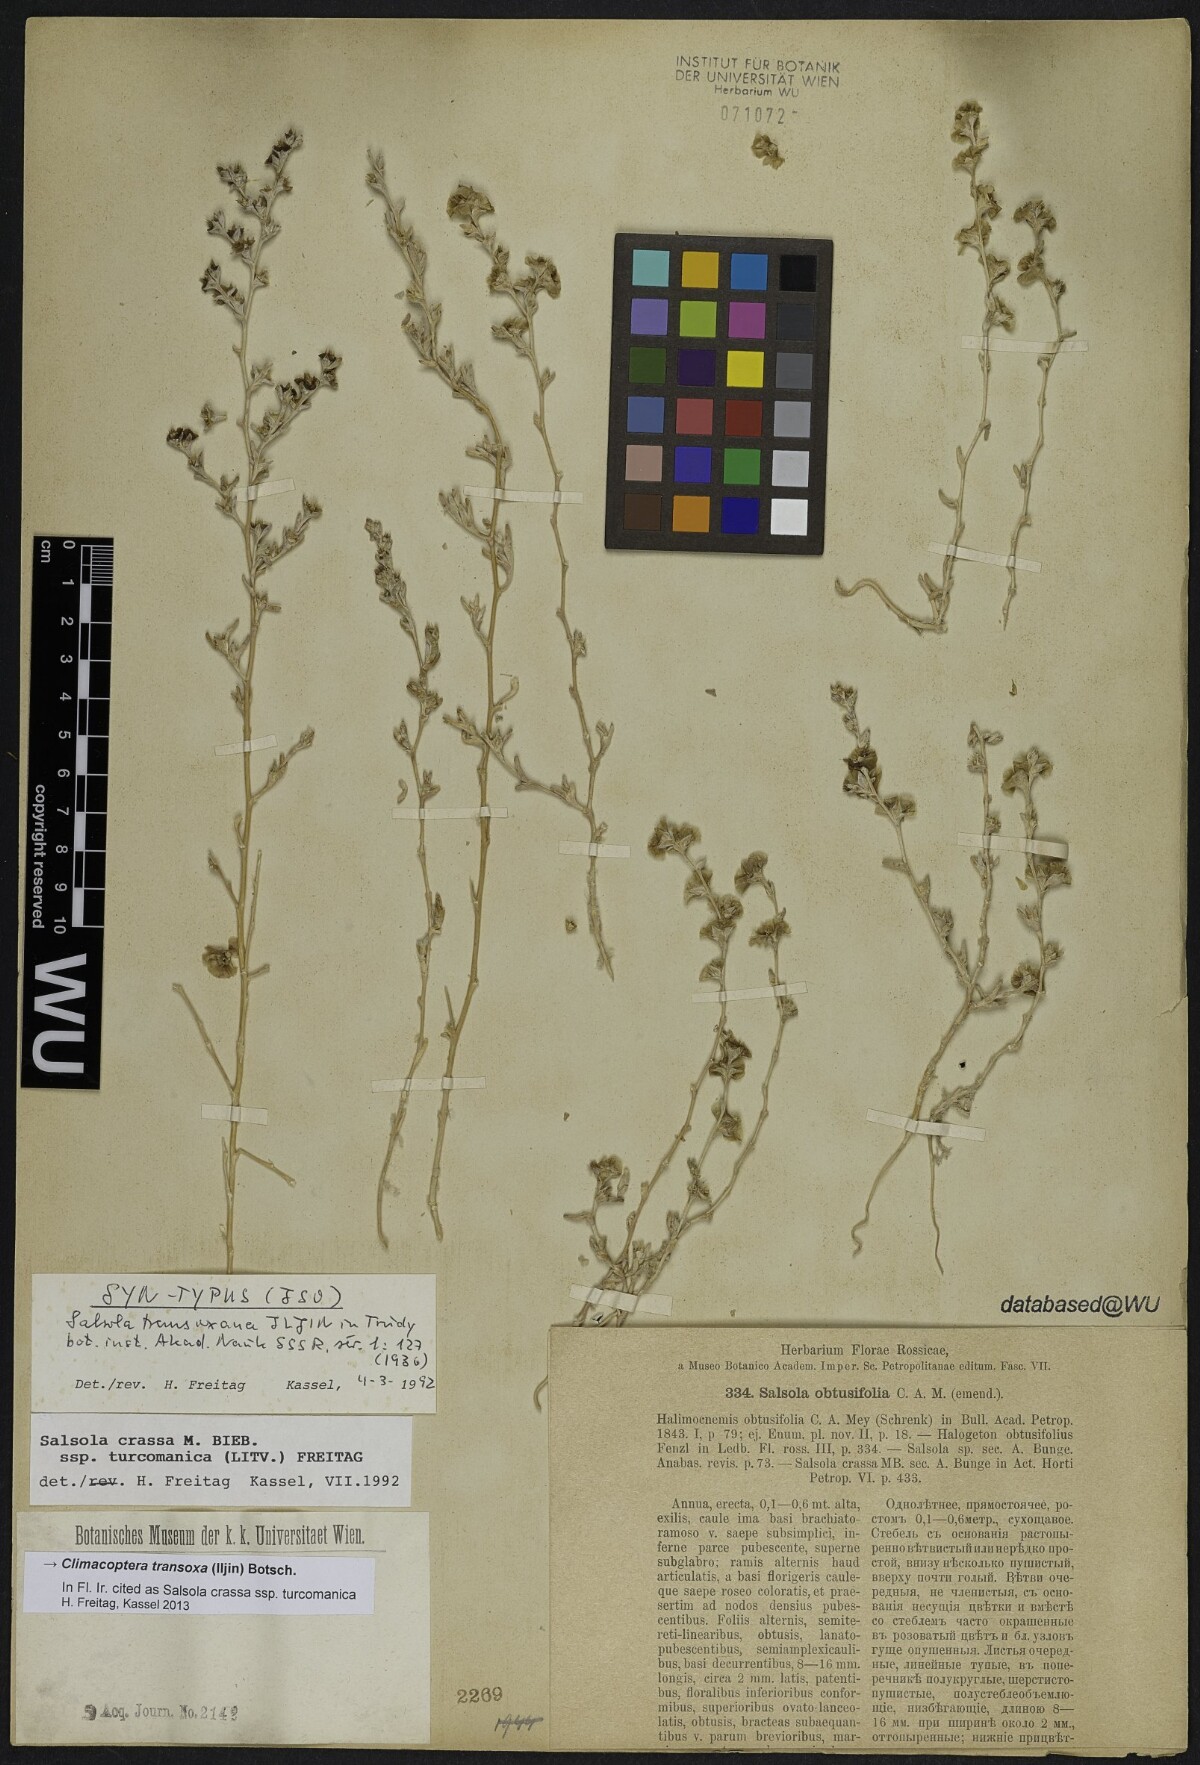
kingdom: Plantae
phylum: Tracheophyta
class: Magnoliopsida
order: Caryophyllales
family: Amaranthaceae
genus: Climacoptera
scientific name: Climacoptera transoxana
